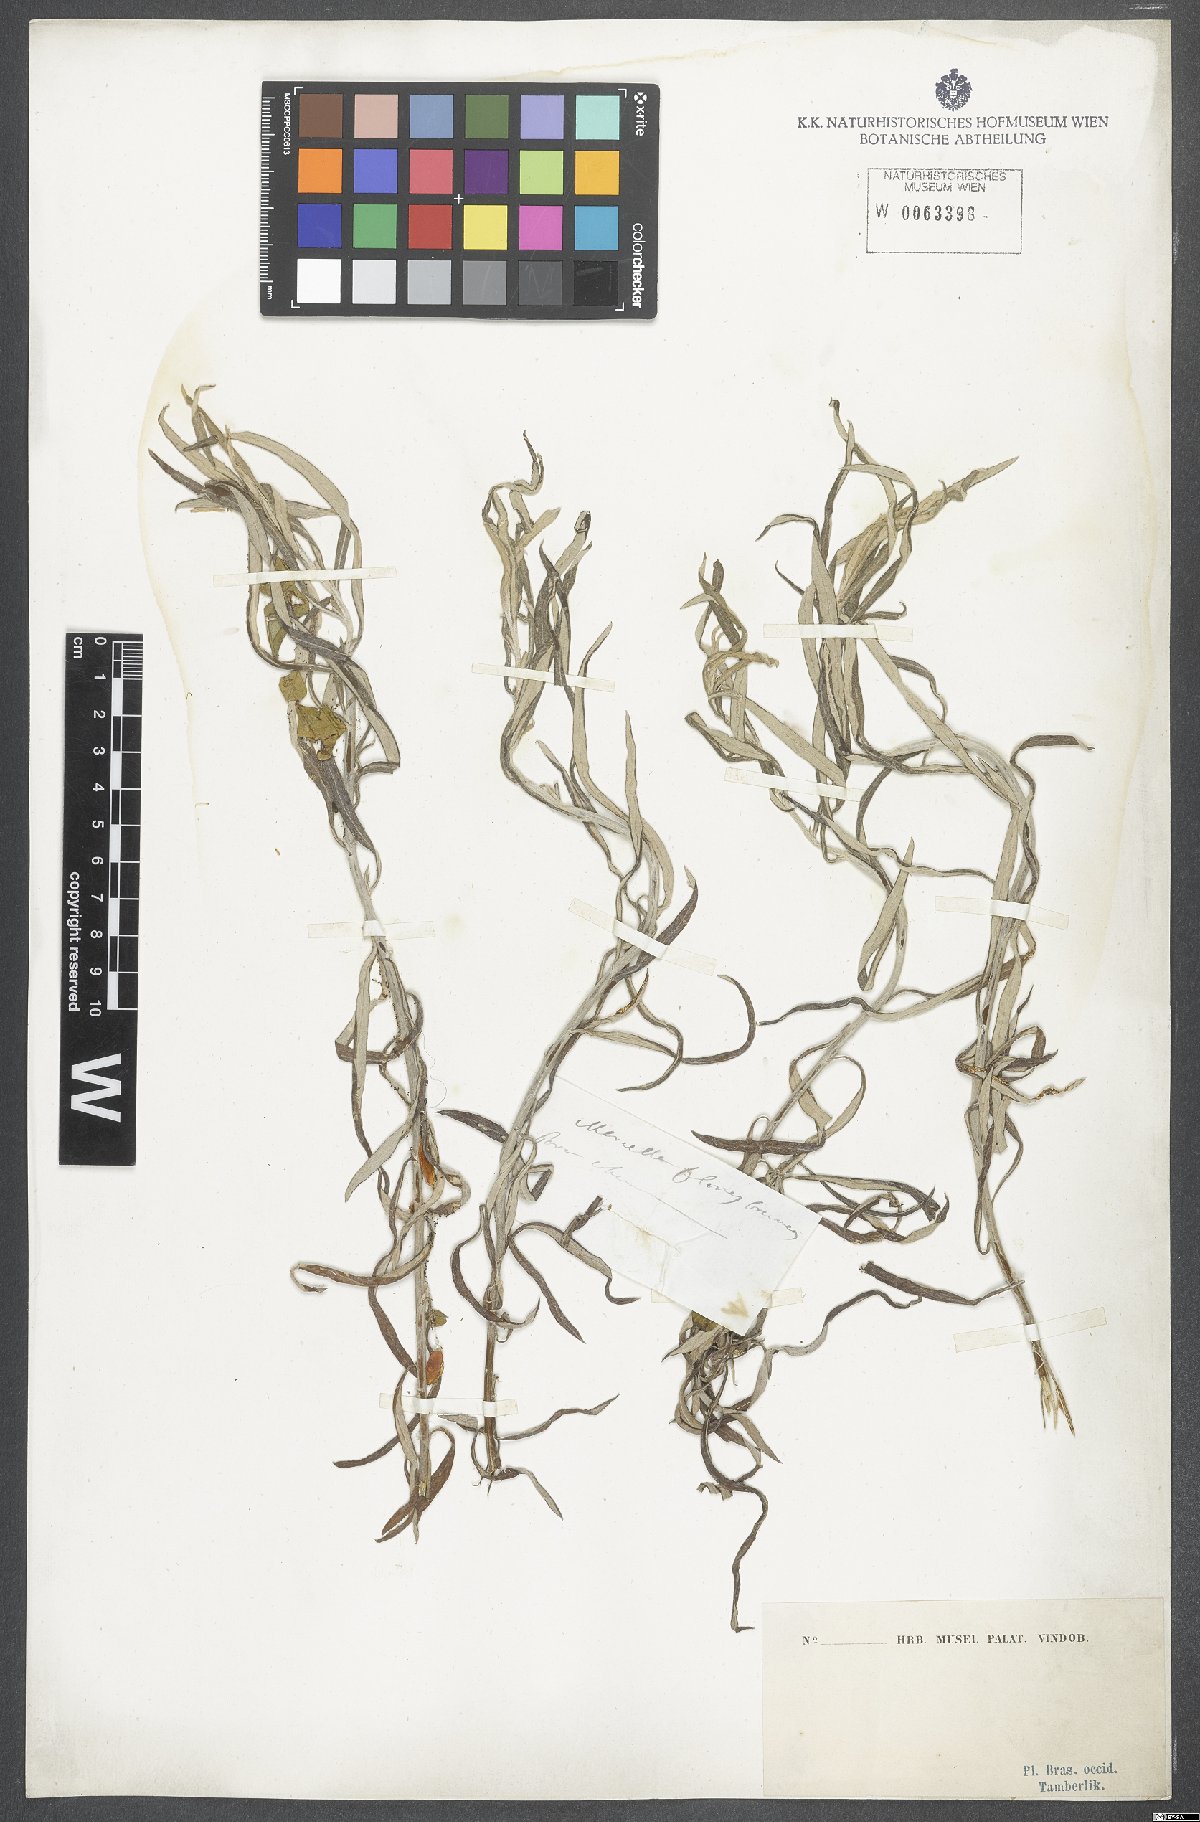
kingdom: Plantae
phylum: Tracheophyta
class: Magnoliopsida
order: Asterales
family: Asteraceae
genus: Gnaphalium
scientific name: Gnaphalium
